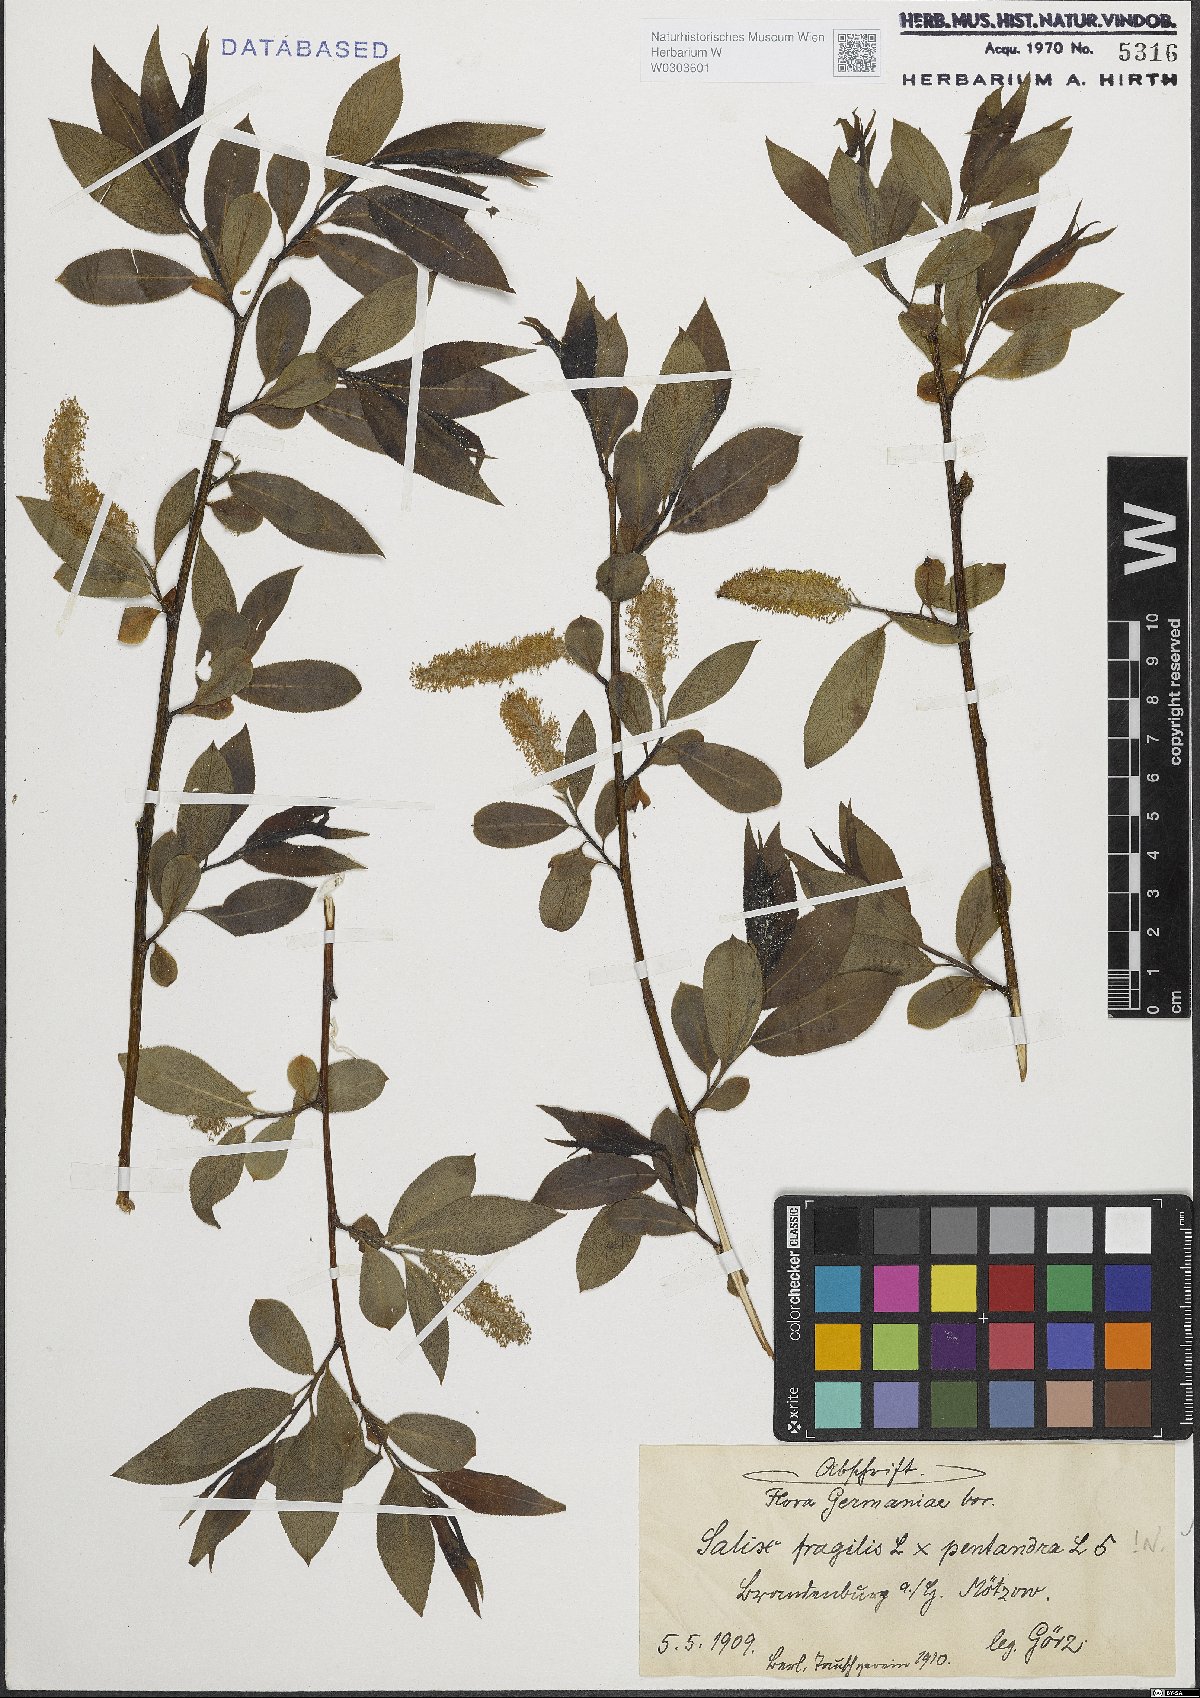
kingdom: Plantae
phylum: Tracheophyta
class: Magnoliopsida
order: Malpighiales
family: Salicaceae
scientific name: Salicaceae
